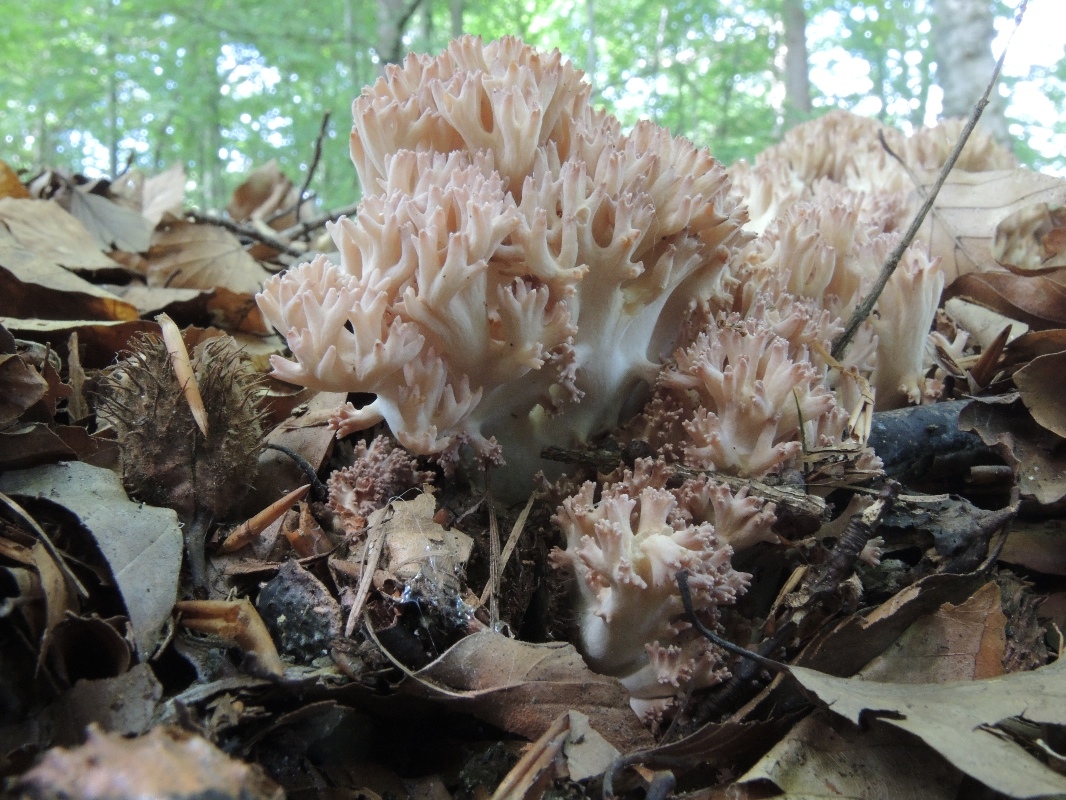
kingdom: Fungi
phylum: Basidiomycota
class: Agaricomycetes
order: Gomphales
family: Gomphaceae
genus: Ramaria
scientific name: Ramaria botrytis
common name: drue-koralsvamp
